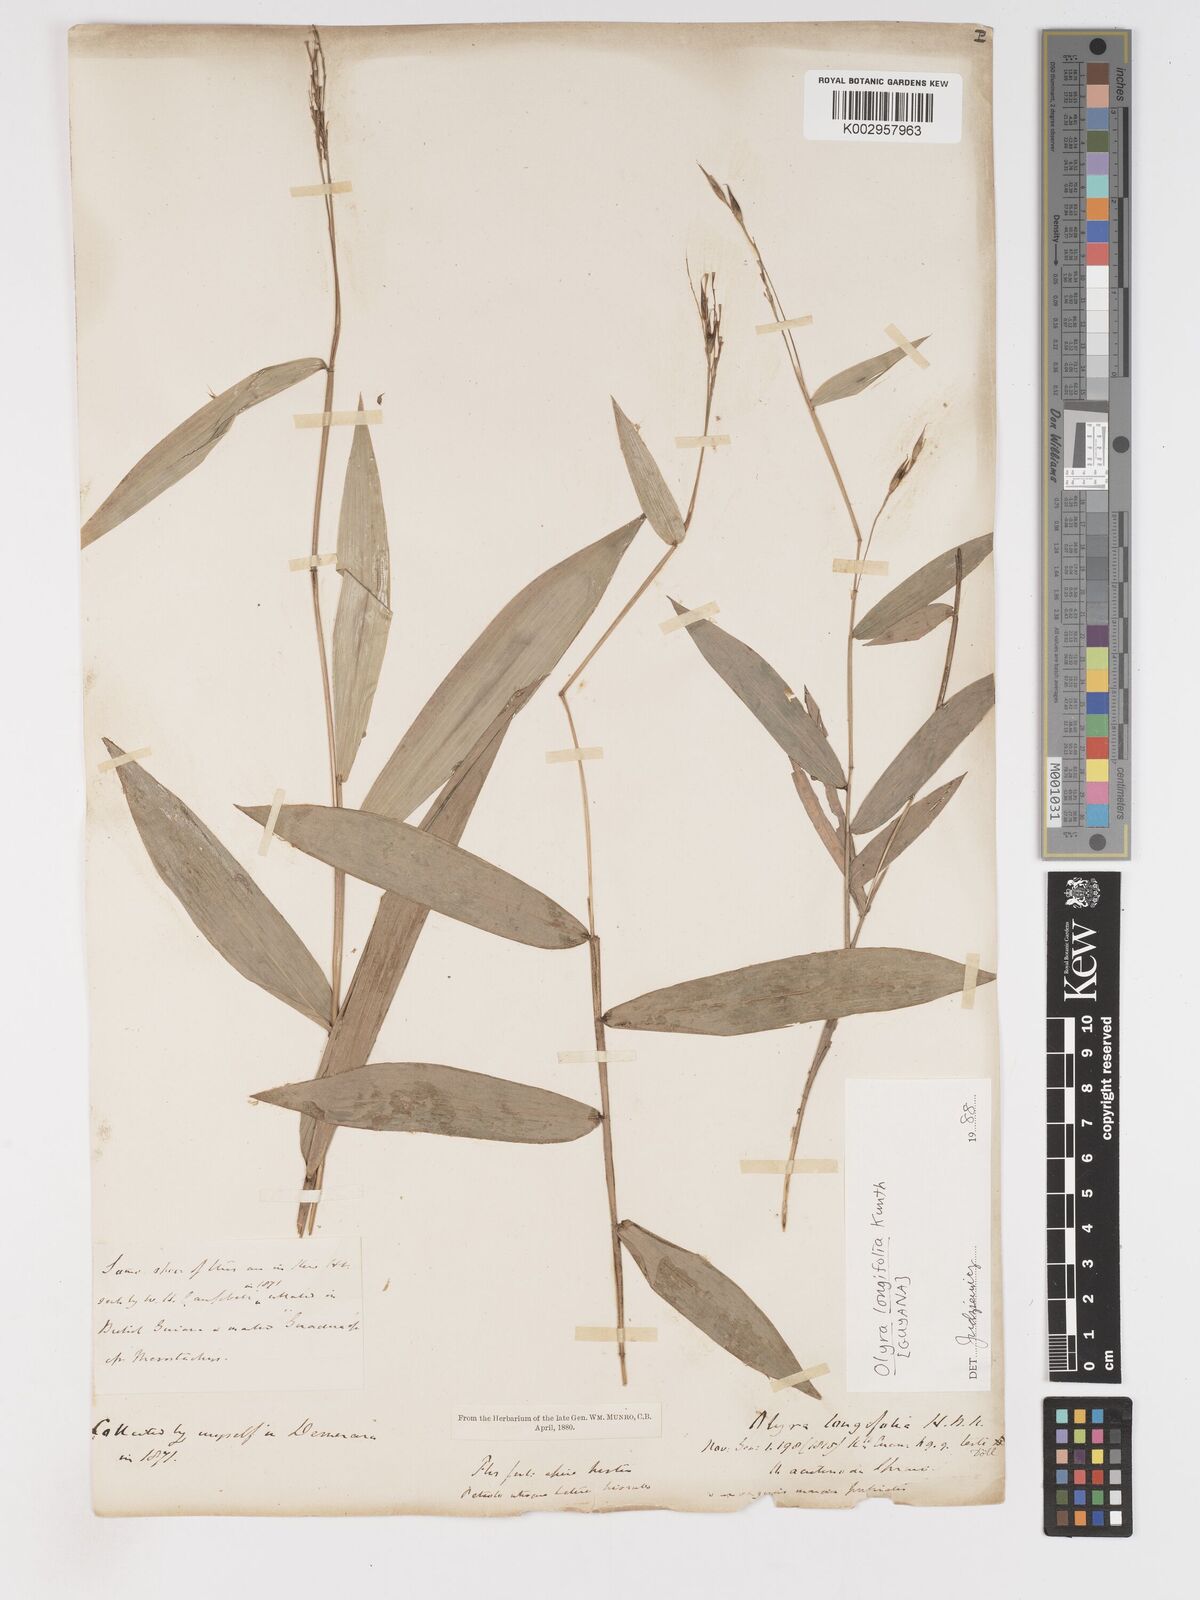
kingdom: Plantae
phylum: Tracheophyta
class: Liliopsida
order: Poales
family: Poaceae
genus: Olyra
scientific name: Olyra longifolia
